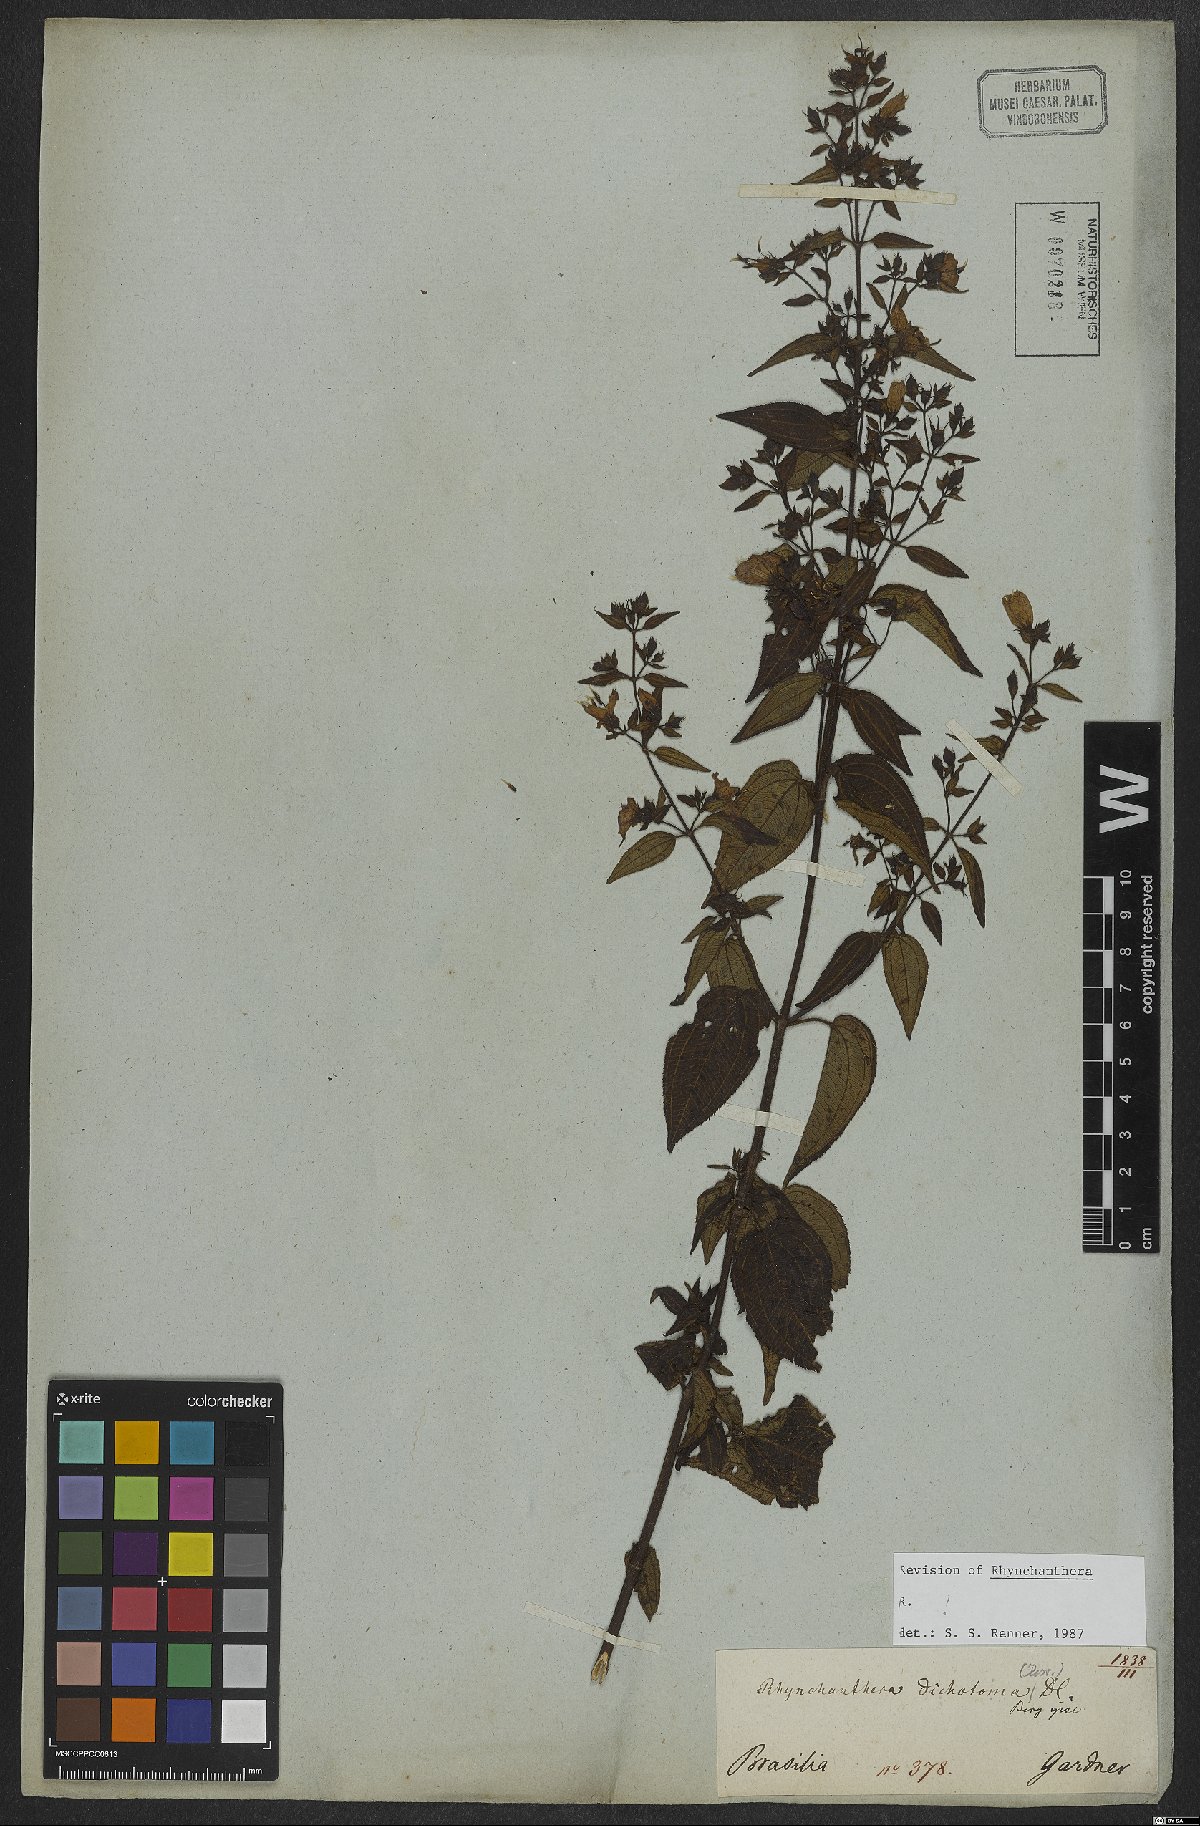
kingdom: Plantae
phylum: Tracheophyta
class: Magnoliopsida
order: Myrtales
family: Melastomataceae
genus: Rhynchanthera
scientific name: Rhynchanthera dichotoma
